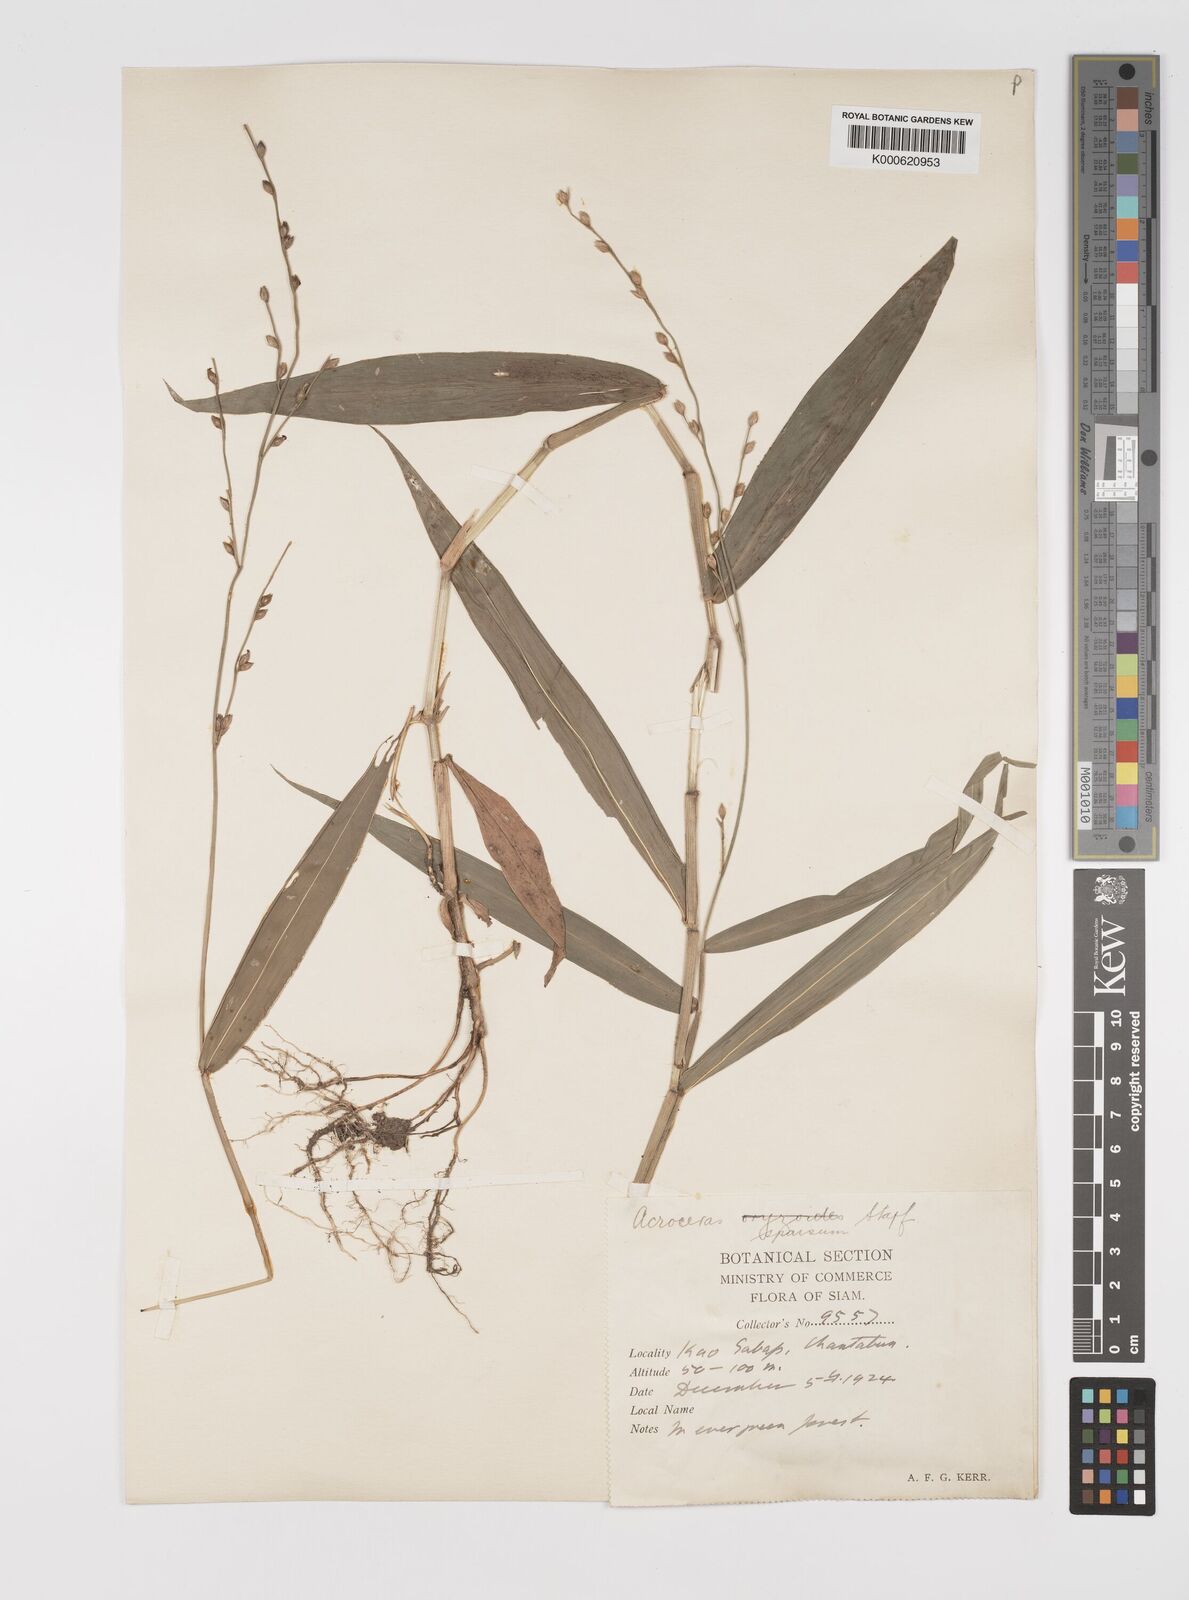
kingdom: Plantae
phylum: Tracheophyta
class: Liliopsida
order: Poales
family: Poaceae
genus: Acroceras
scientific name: Acroceras
